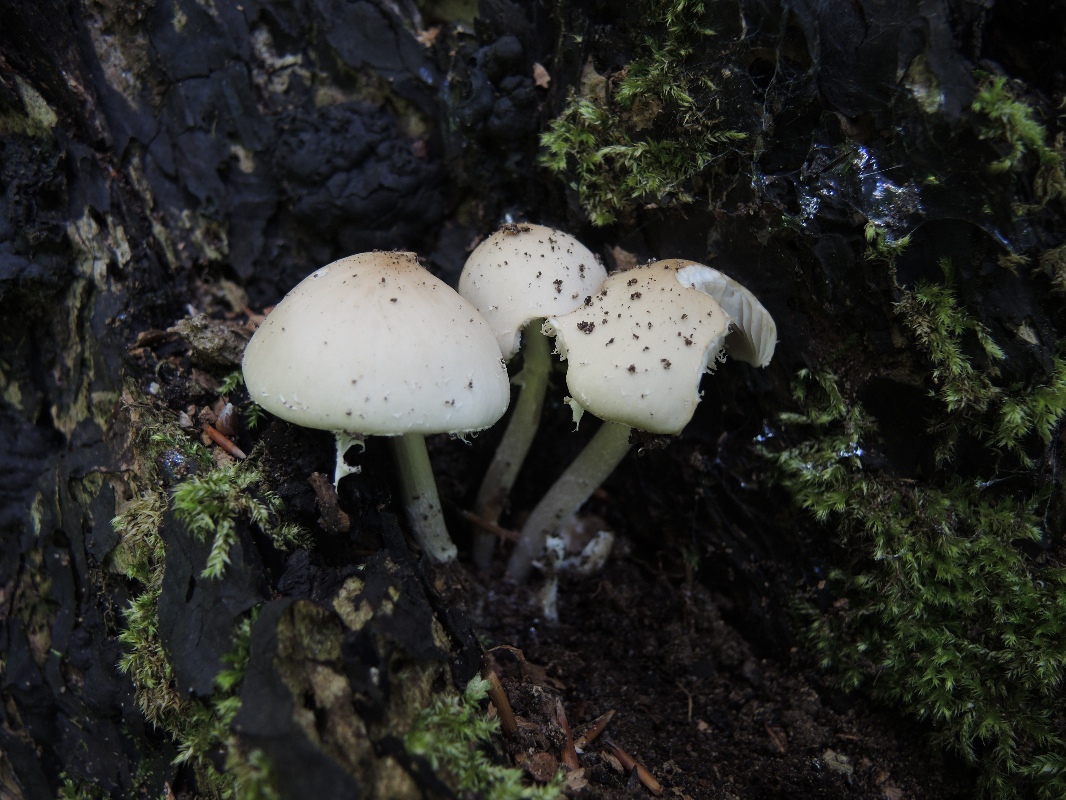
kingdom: Fungi
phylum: Basidiomycota
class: Agaricomycetes
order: Agaricales
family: Psathyrellaceae
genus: Candolleomyces
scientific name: Candolleomyces candolleanus
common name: Candolles mørkhat
